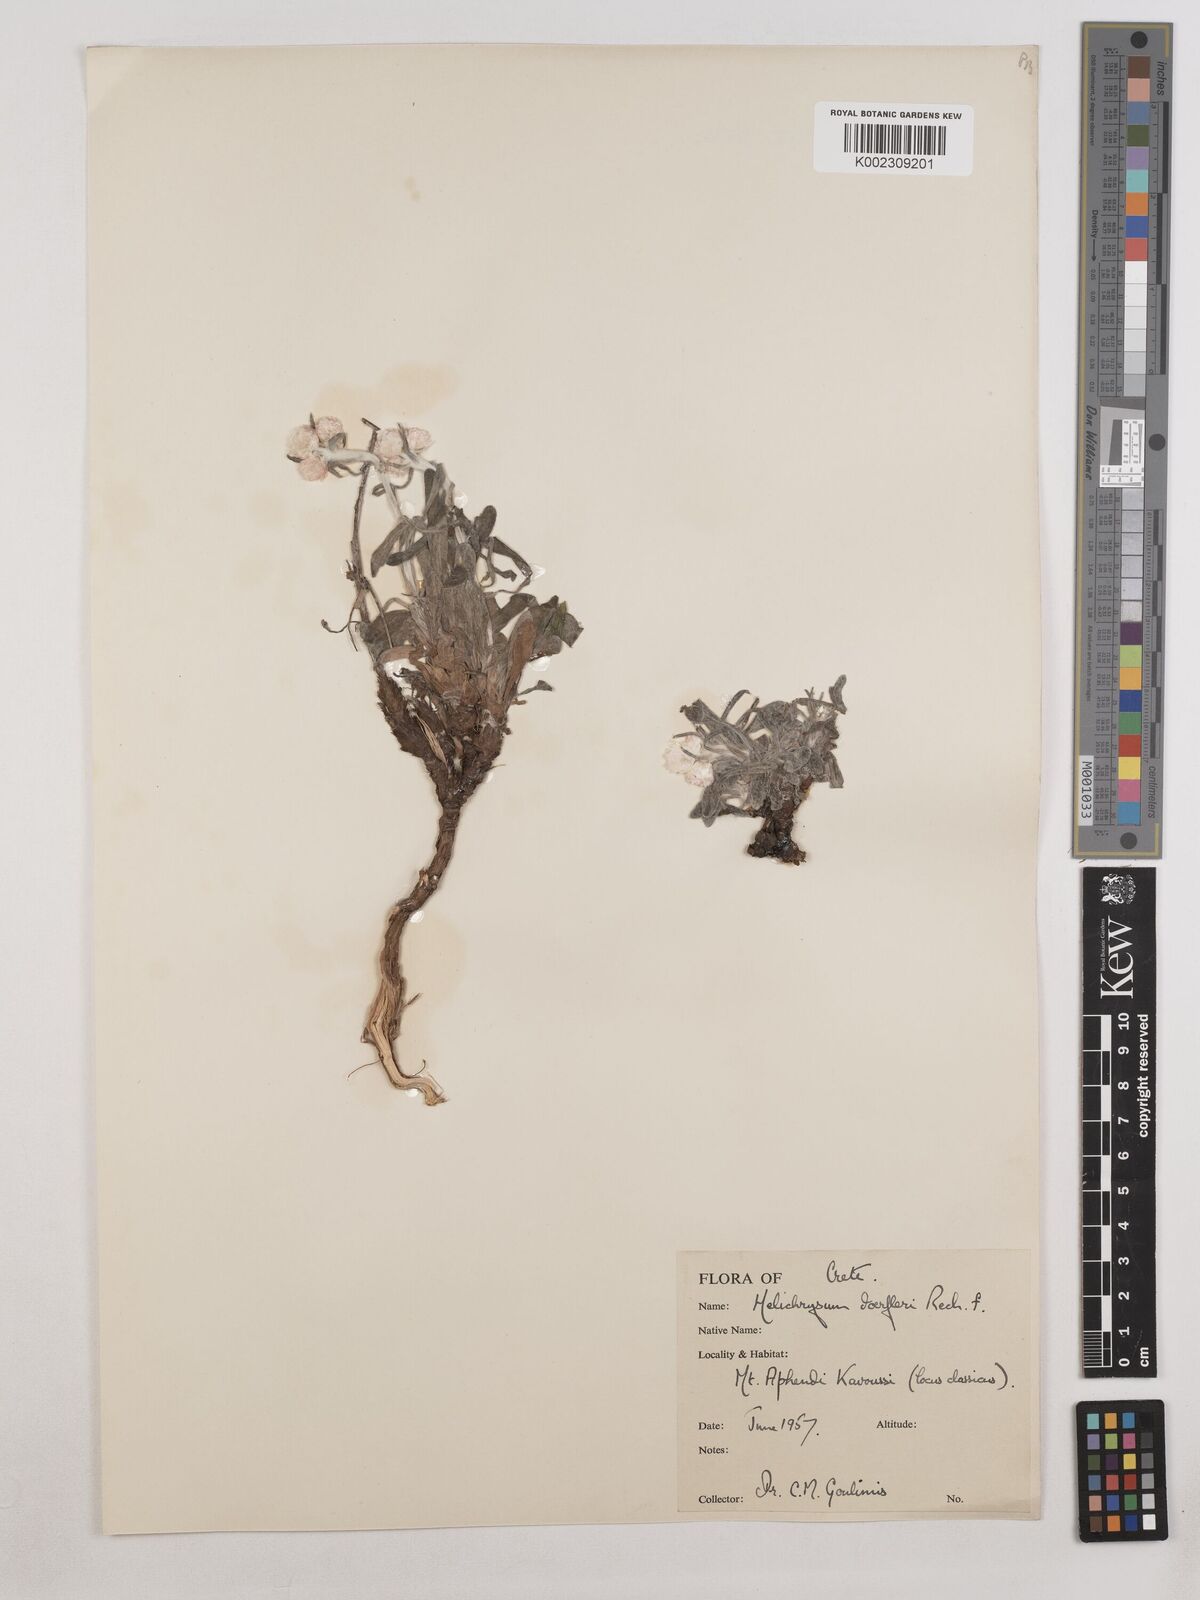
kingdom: Plantae
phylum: Tracheophyta
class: Magnoliopsida
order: Asterales
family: Asteraceae
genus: Helichrysum
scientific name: Helichrysum doerfleri
